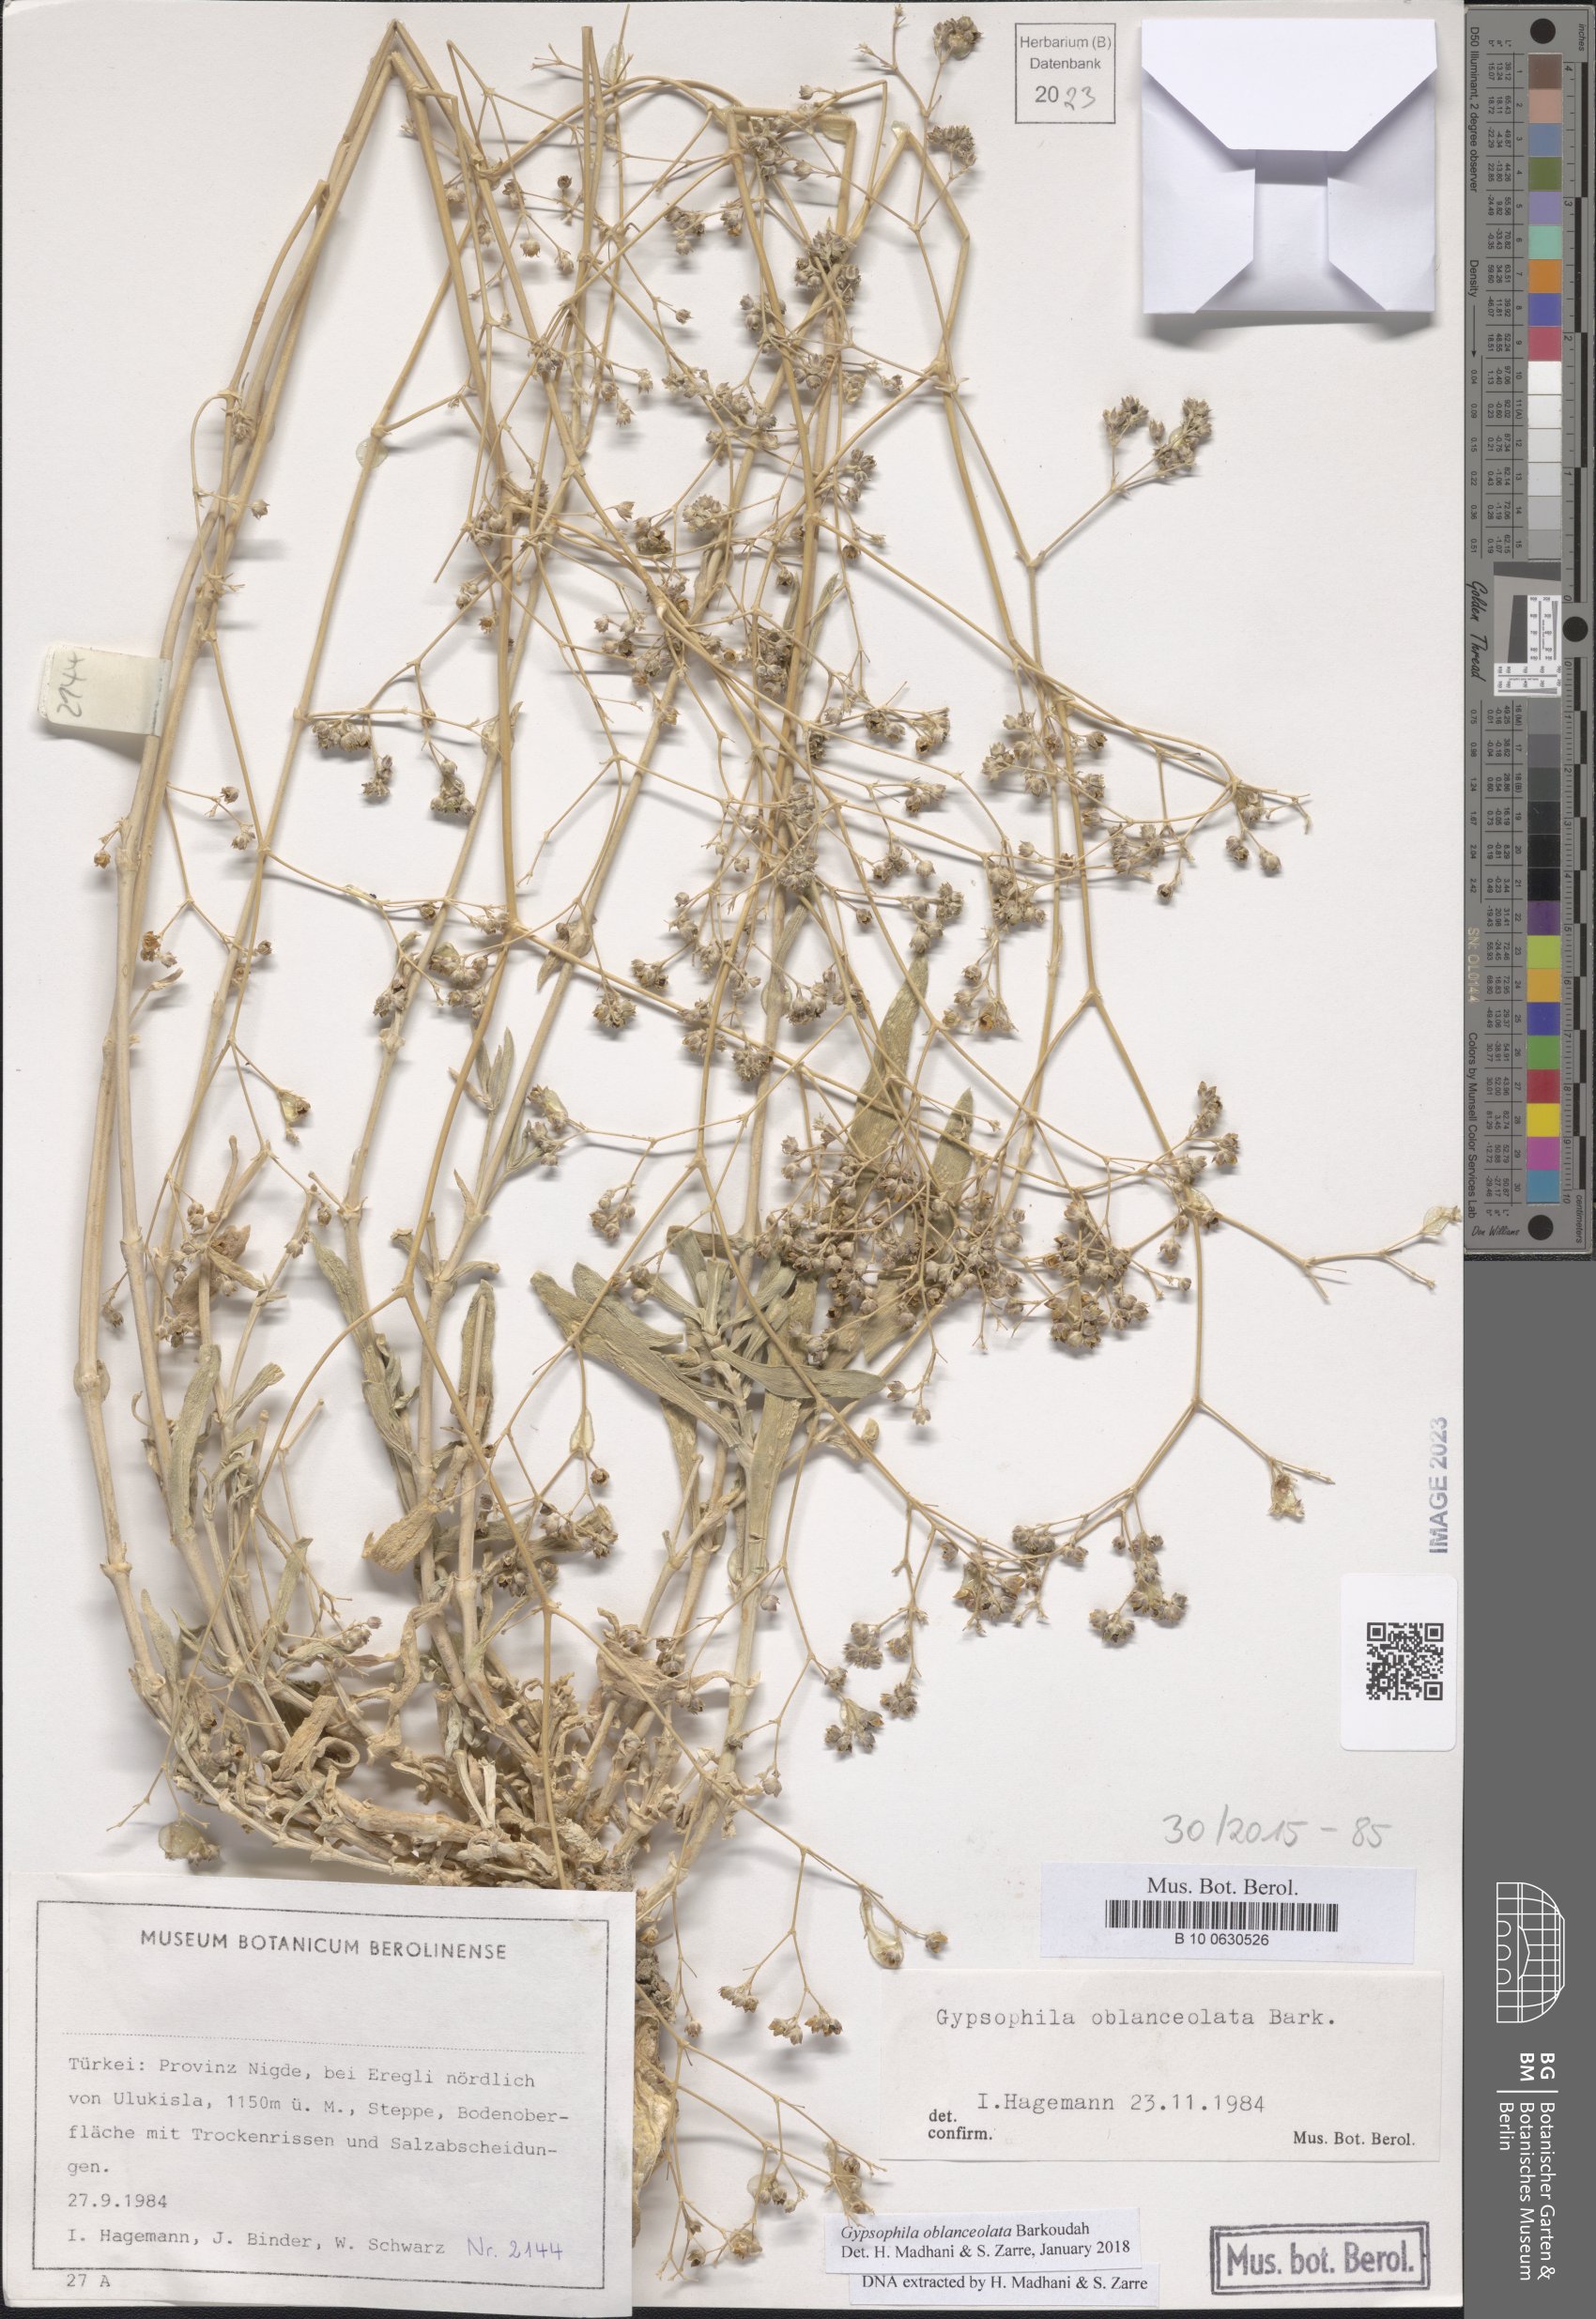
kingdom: Plantae
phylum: Tracheophyta
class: Magnoliopsida
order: Caryophyllales
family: Caryophyllaceae
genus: Gypsophila
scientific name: Gypsophila oblanceolata
